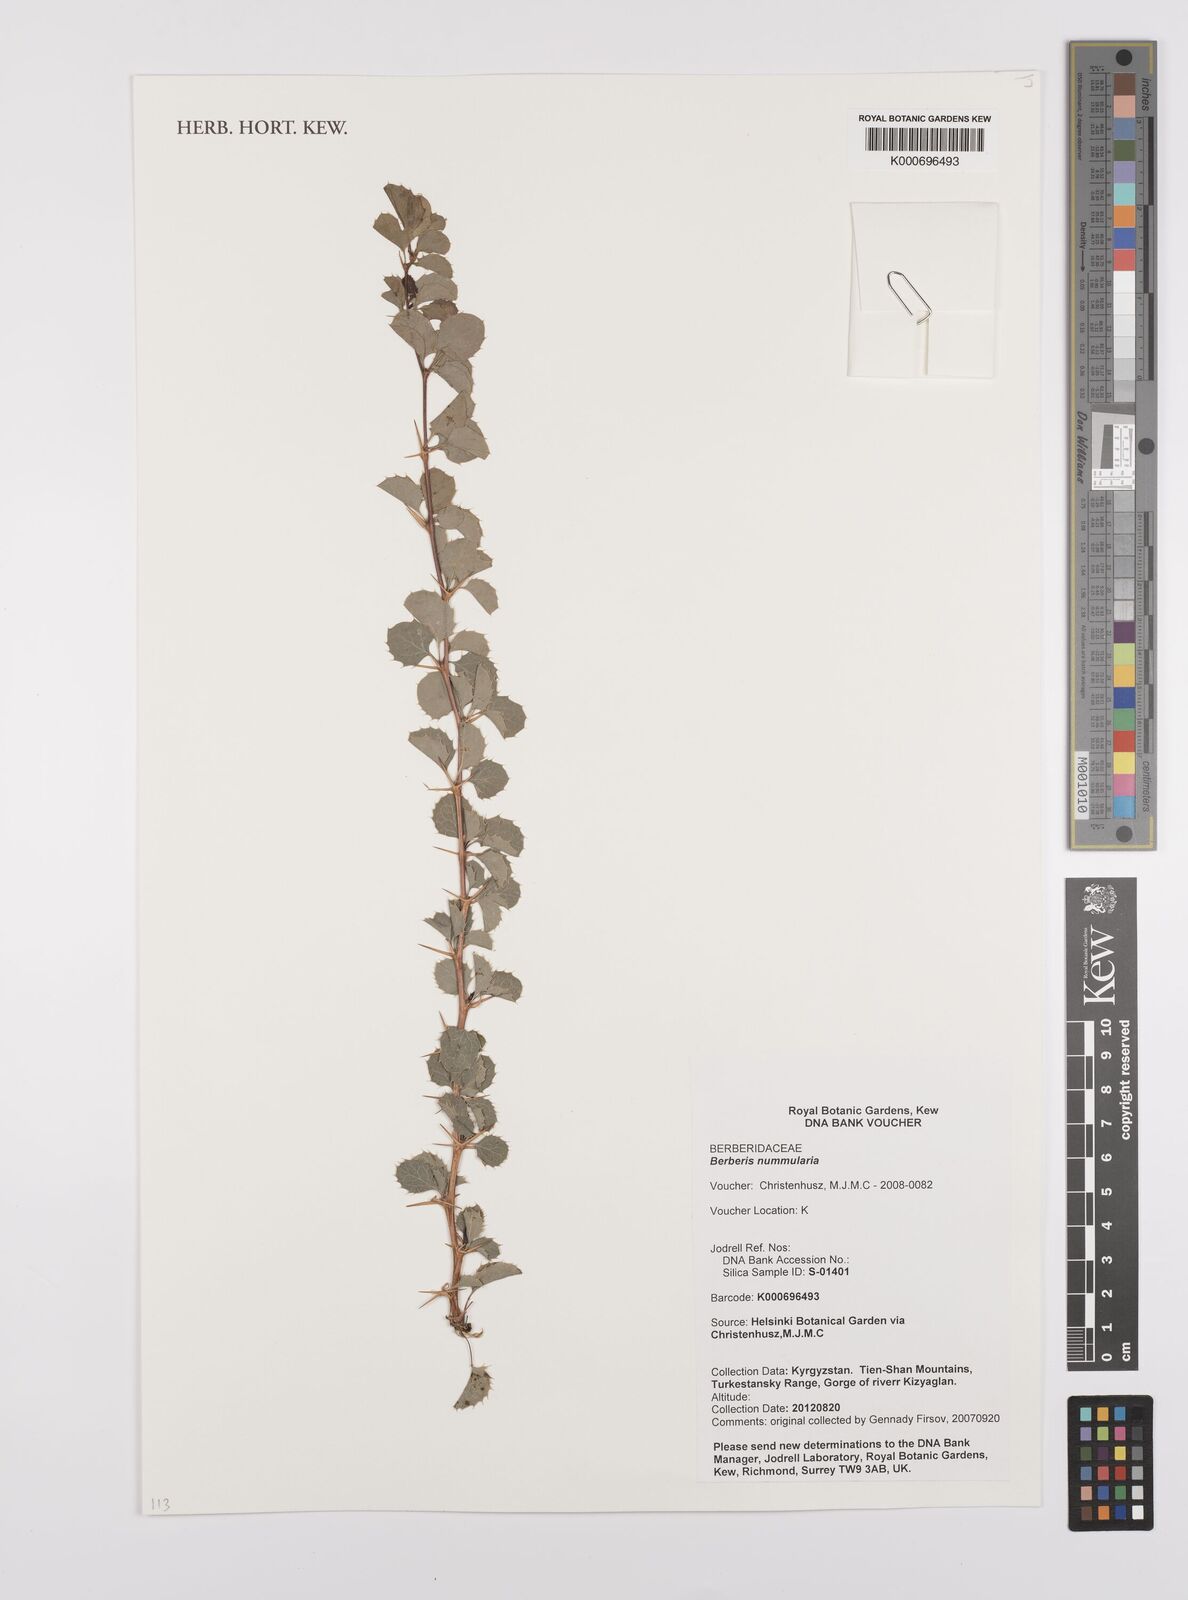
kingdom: Plantae
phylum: Tracheophyta
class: Magnoliopsida
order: Ranunculales
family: Berberidaceae
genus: Berberis
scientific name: Berberis nummularia
